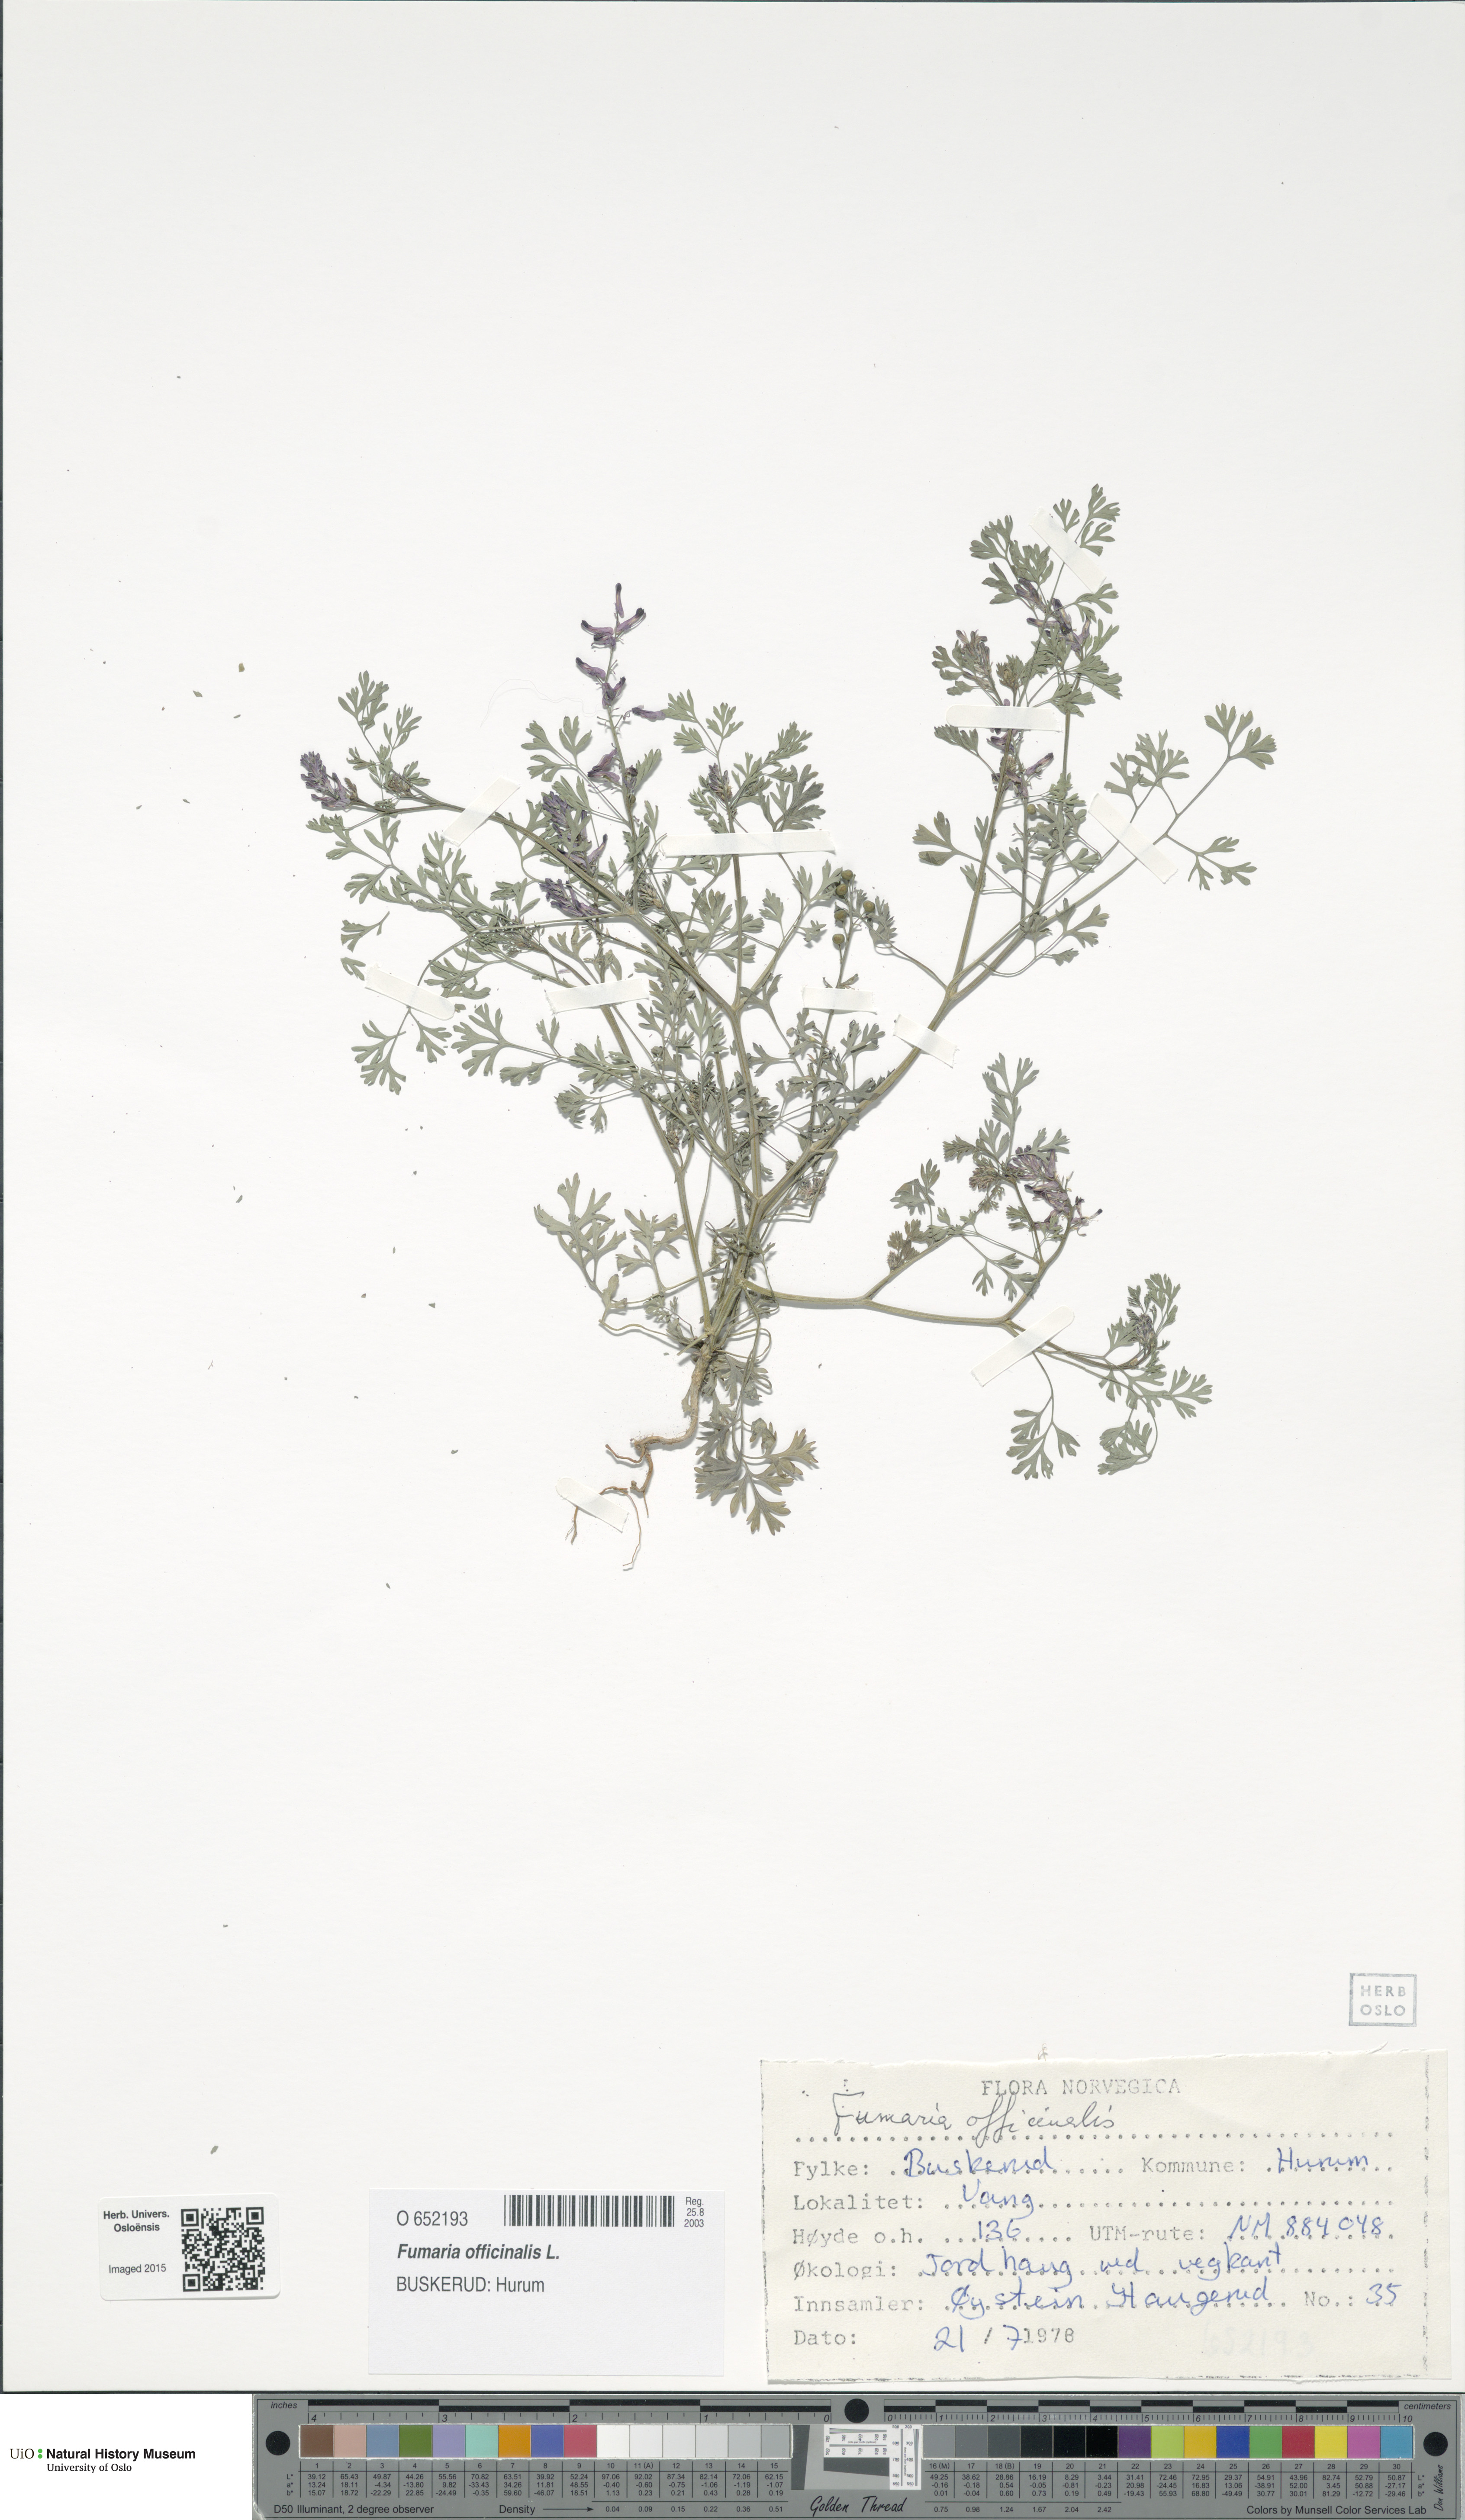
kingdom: Plantae
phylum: Tracheophyta
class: Magnoliopsida
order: Ranunculales
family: Papaveraceae
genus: Fumaria
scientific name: Fumaria officinalis
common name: Common fumitory
